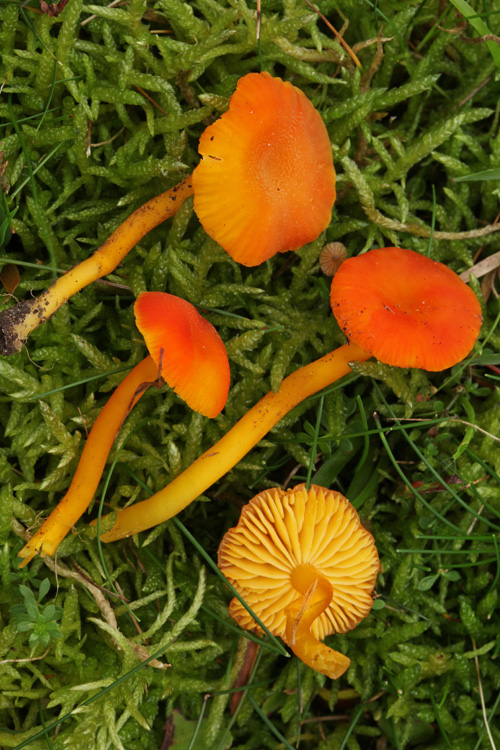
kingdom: Fungi
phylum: Basidiomycota
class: Agaricomycetes
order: Agaricales
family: Hygrophoraceae
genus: Hygrocybe
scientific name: Hygrocybe miniata
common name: mønje-vokshat
